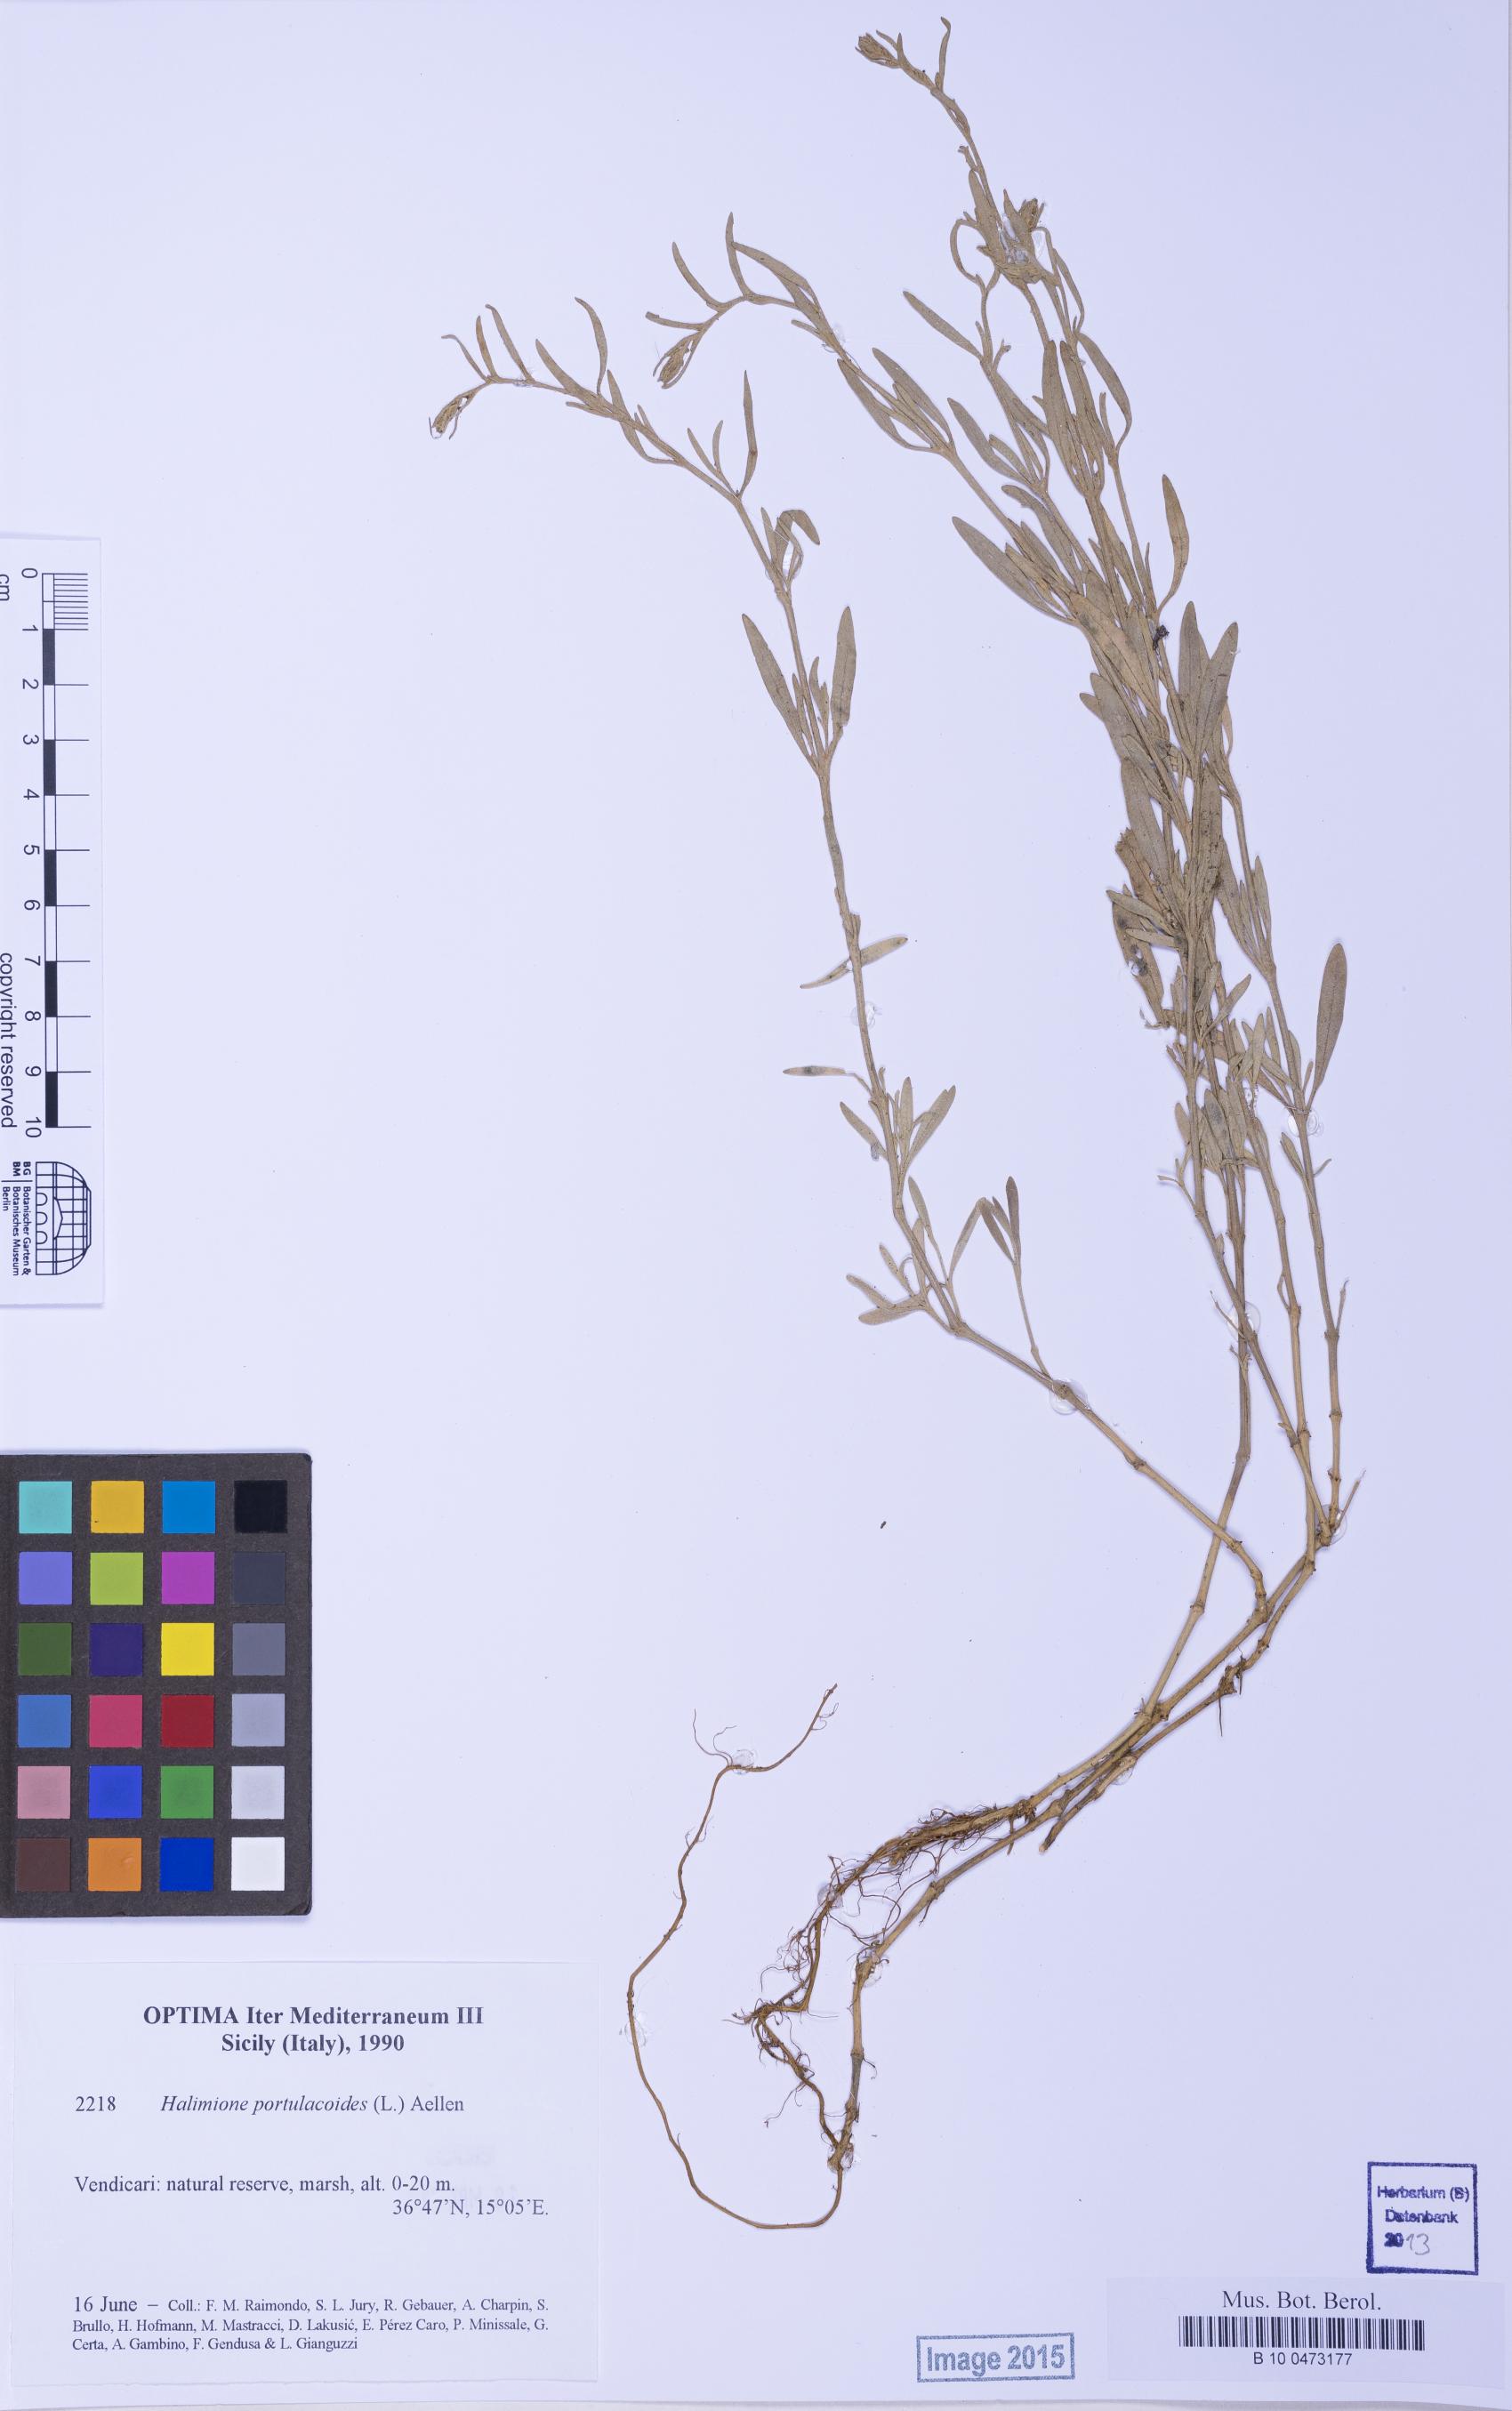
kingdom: Plantae
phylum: Tracheophyta
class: Magnoliopsida
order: Caryophyllales
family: Amaranthaceae
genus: Halimione
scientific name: Halimione portulacoides
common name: Sea-purslane
